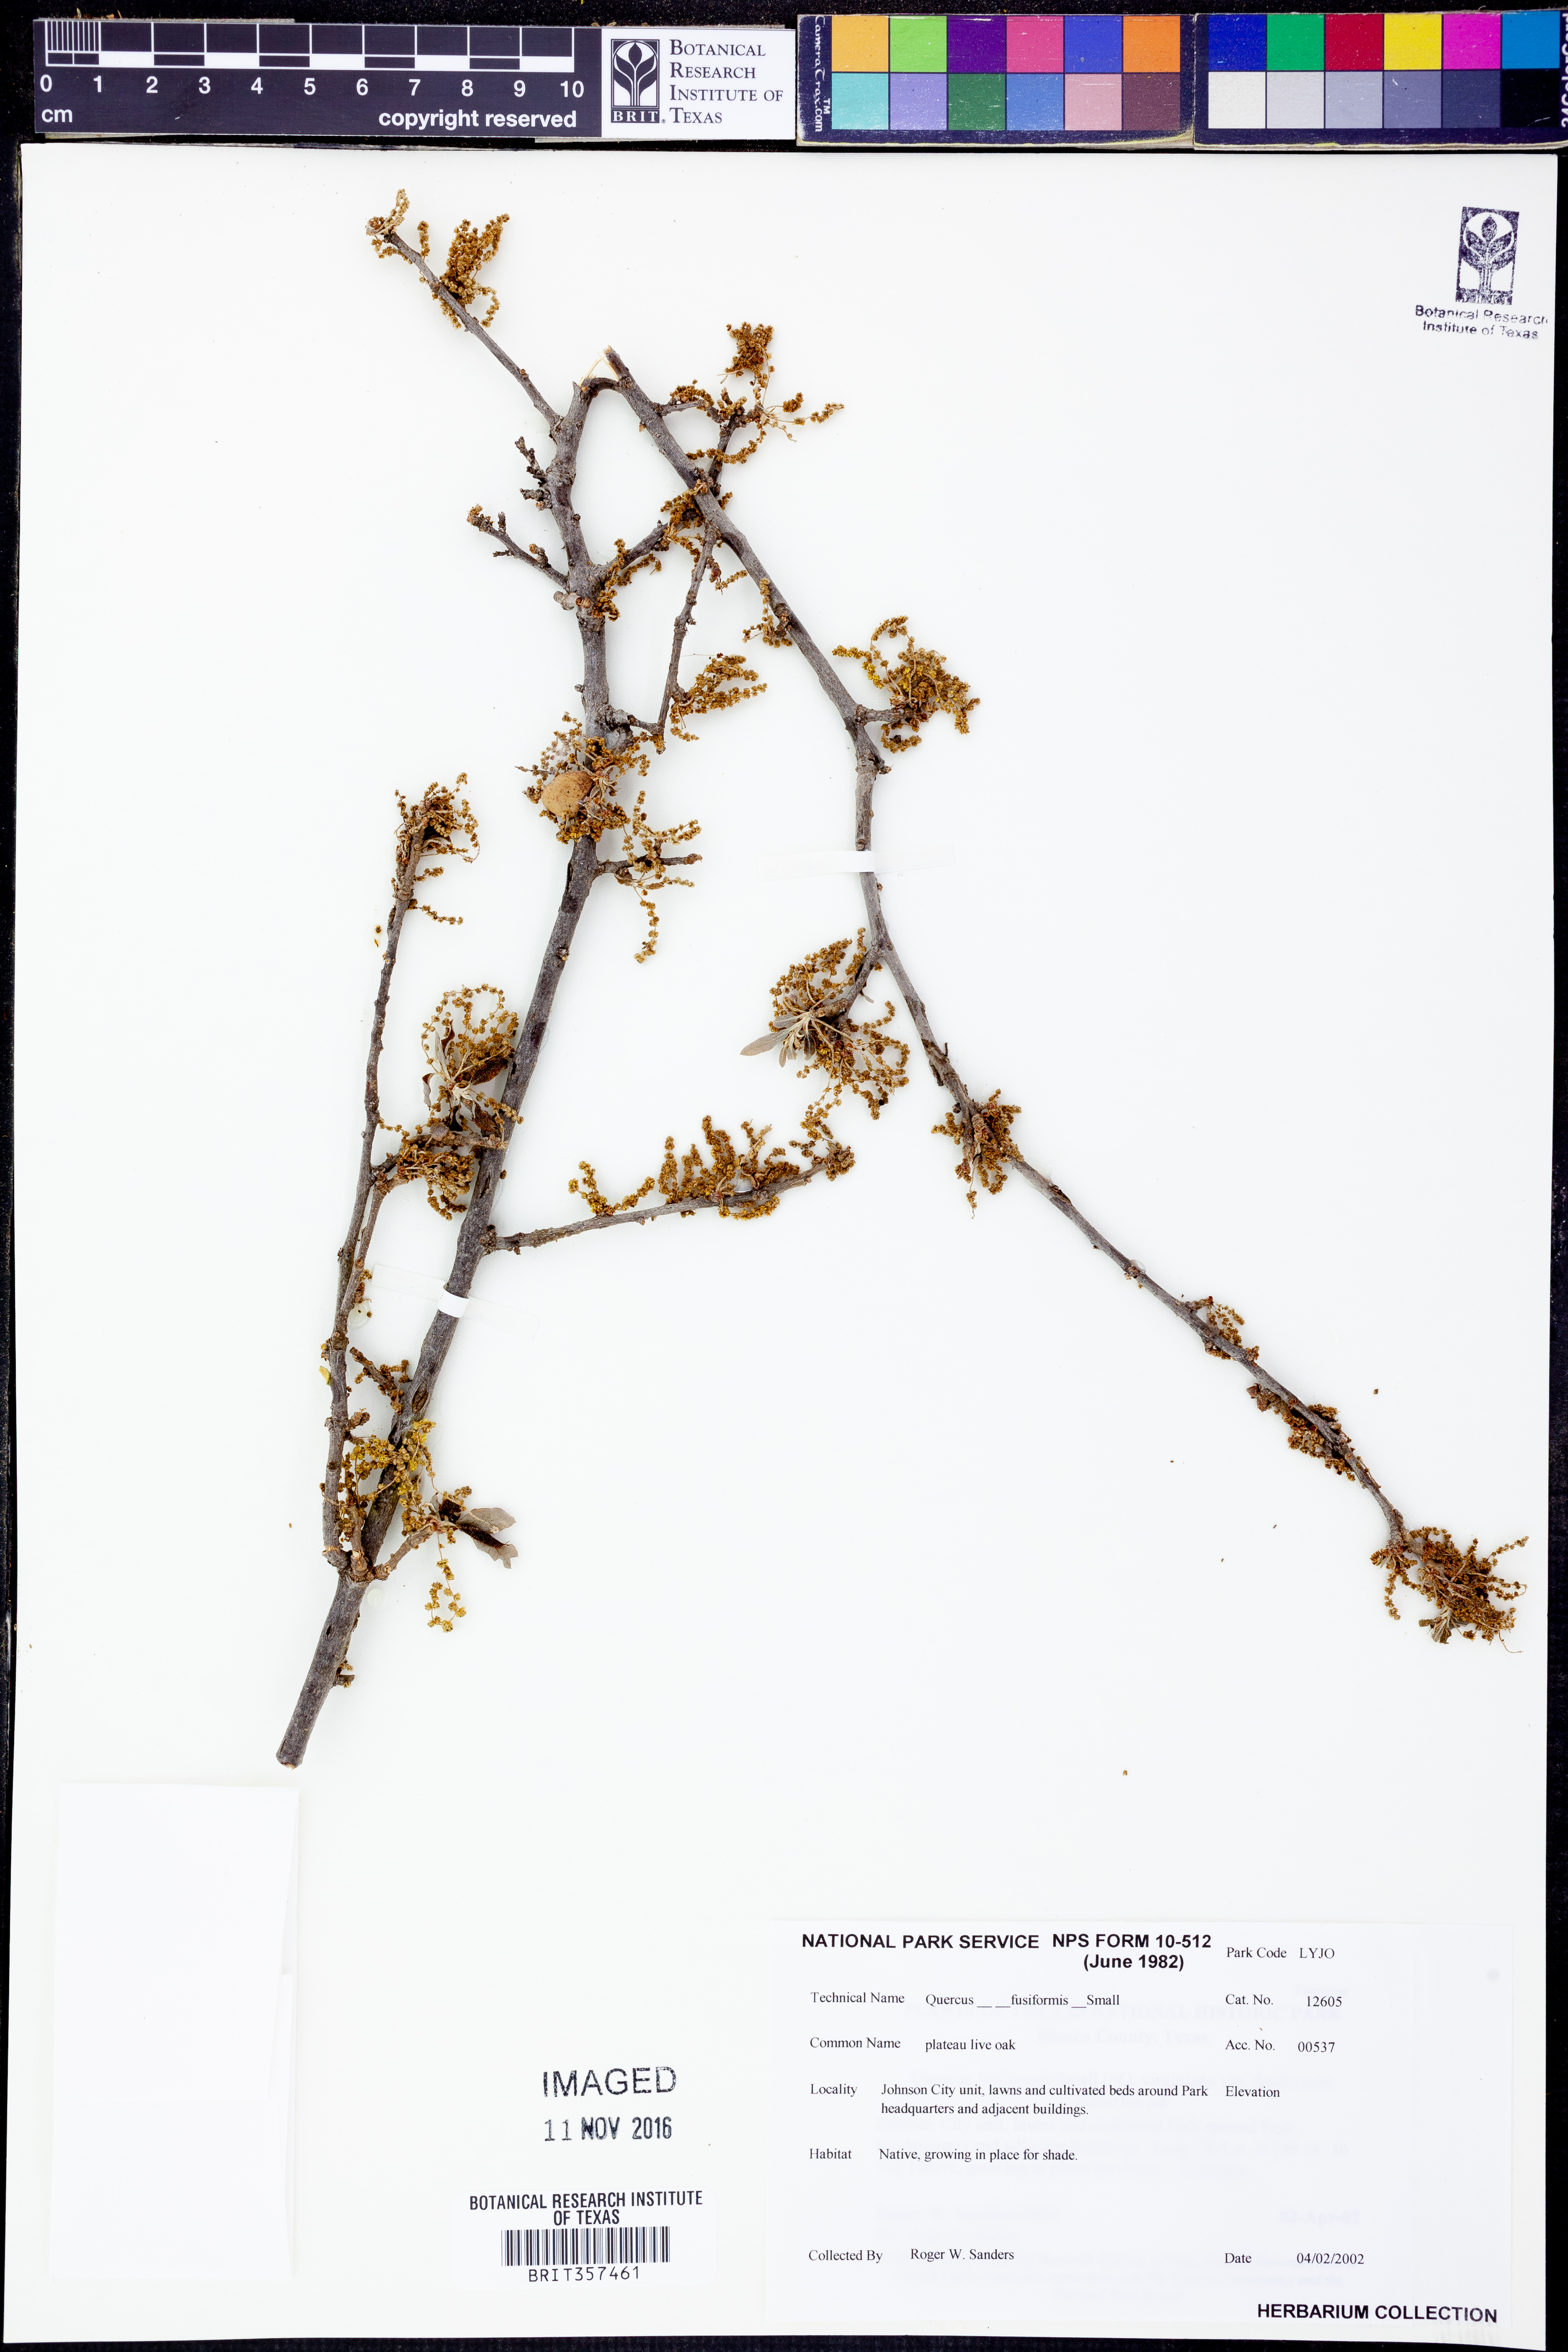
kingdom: Plantae
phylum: Tracheophyta
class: Magnoliopsida
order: Fagales
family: Fagaceae
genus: Quercus
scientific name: Quercus fusiformis
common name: Texas live oak
